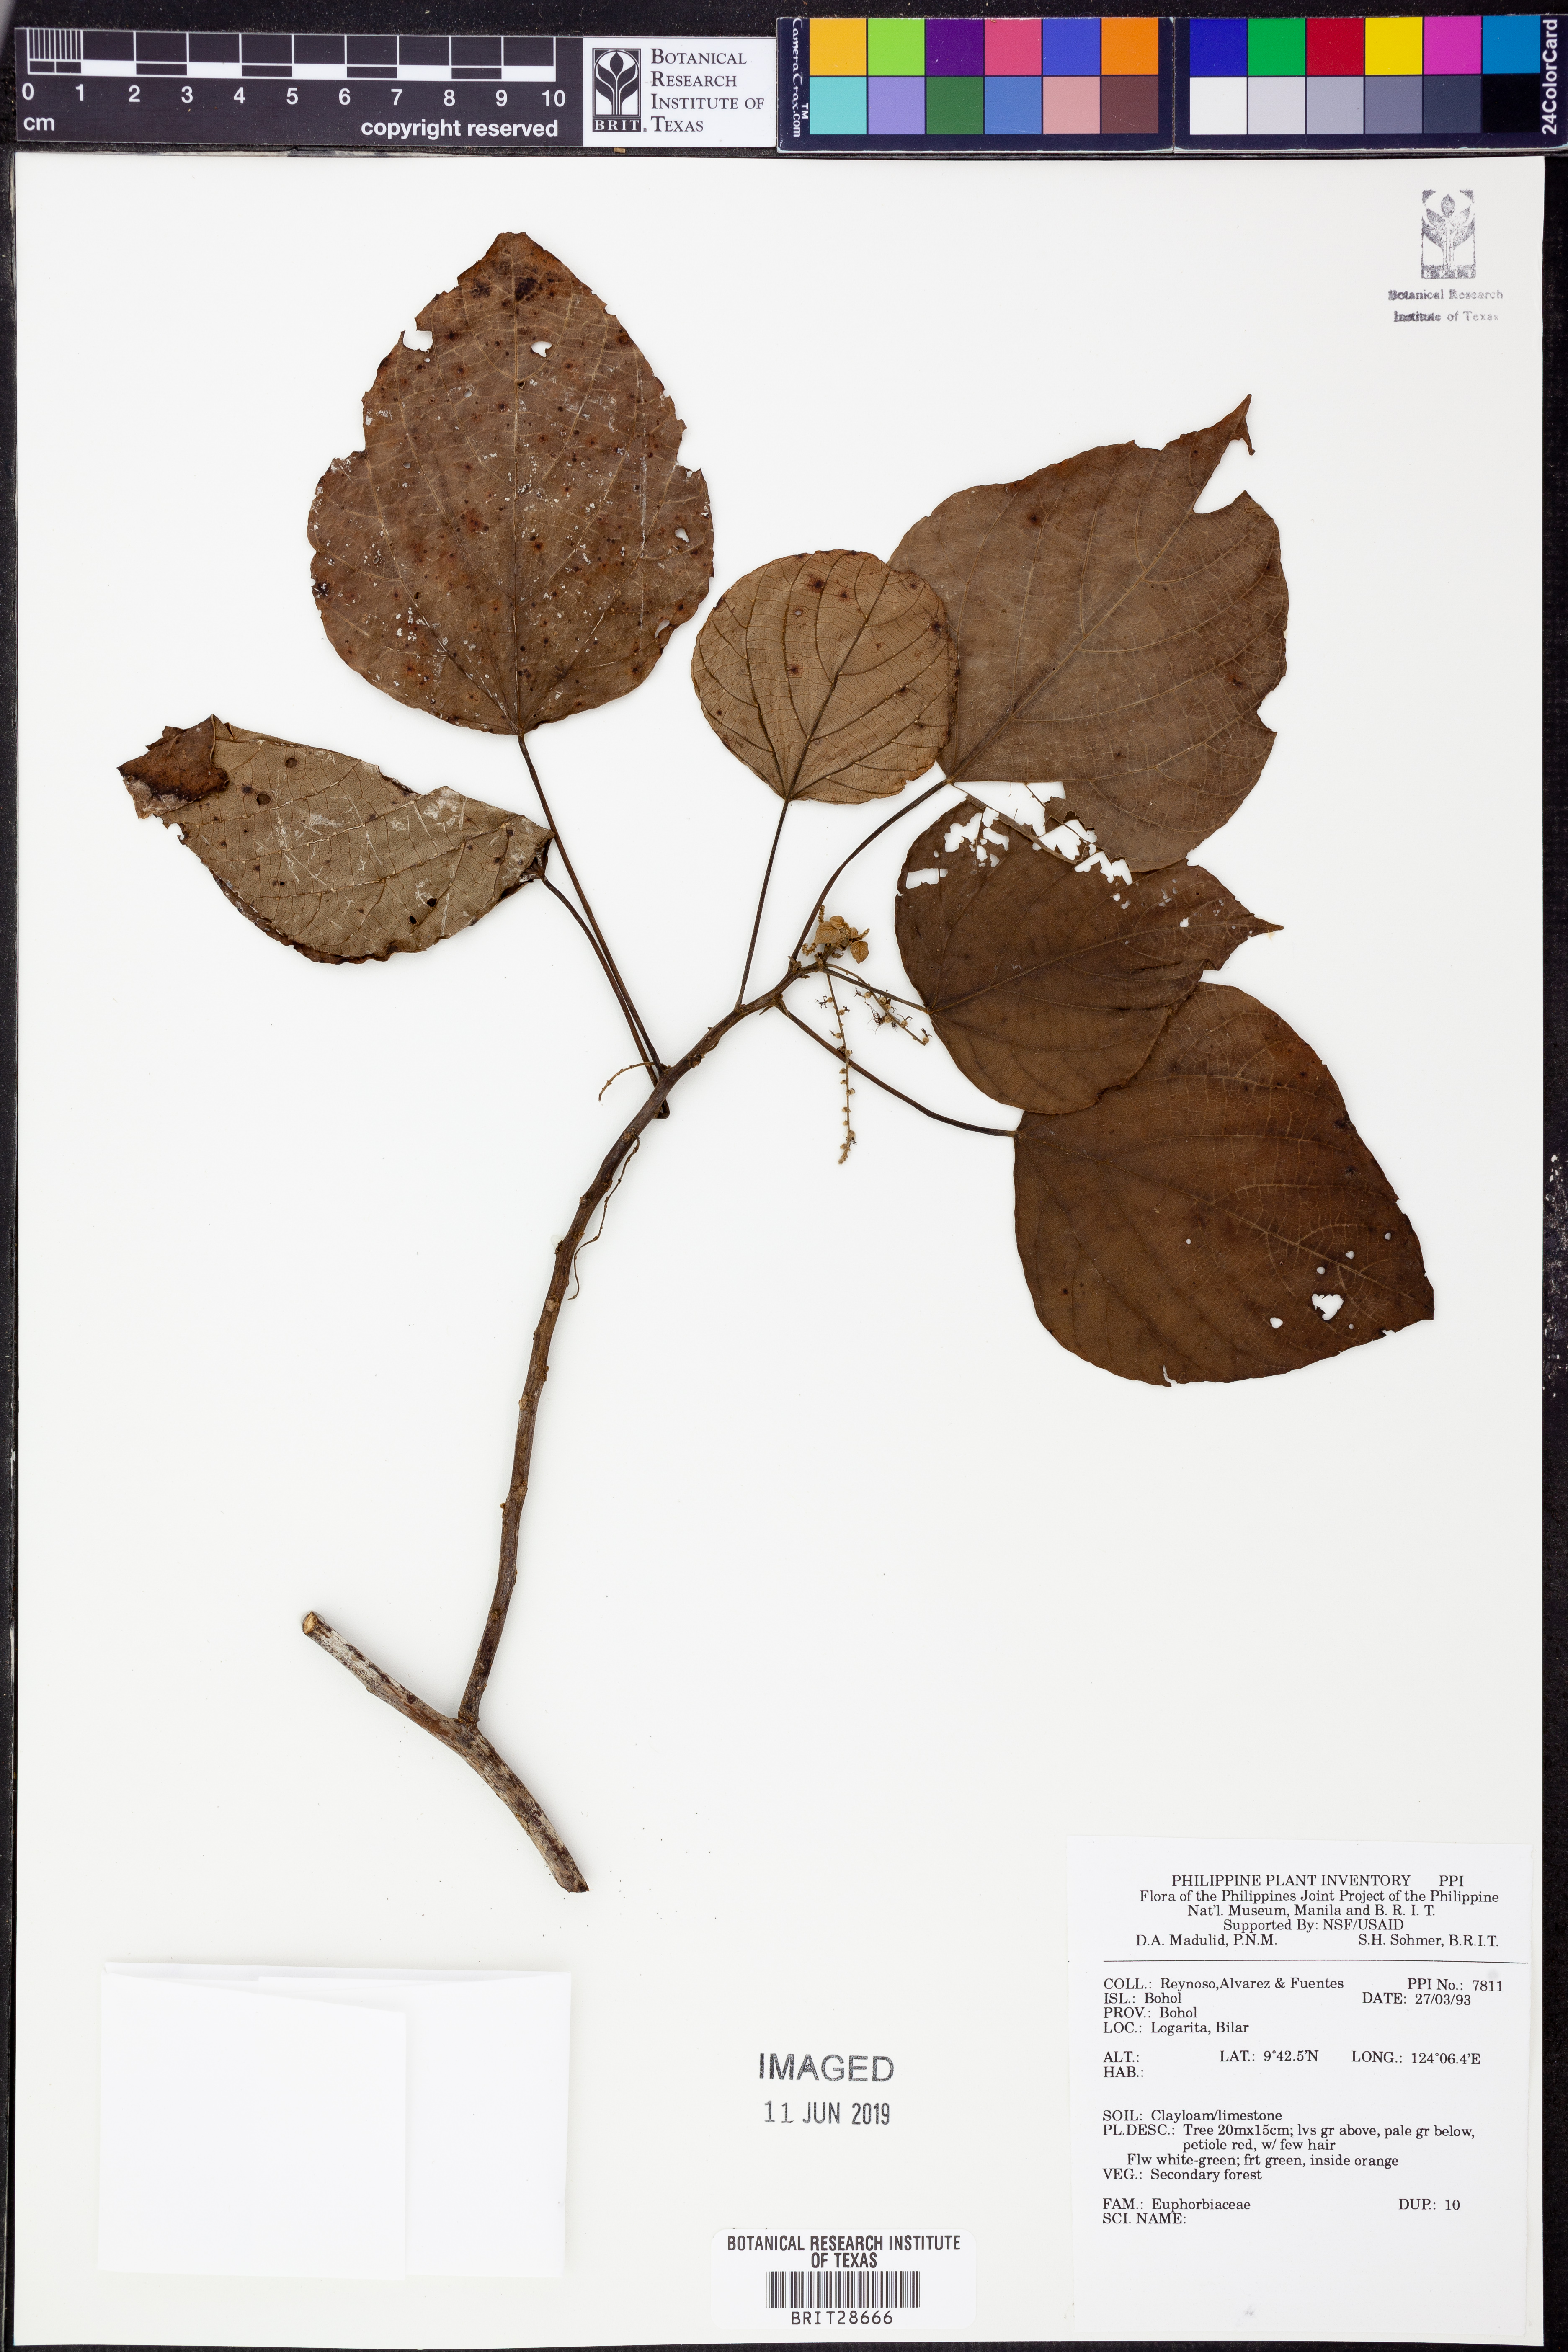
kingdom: Plantae
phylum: Tracheophyta
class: Magnoliopsida
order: Malpighiales
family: Euphorbiaceae
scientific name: Euphorbiaceae
